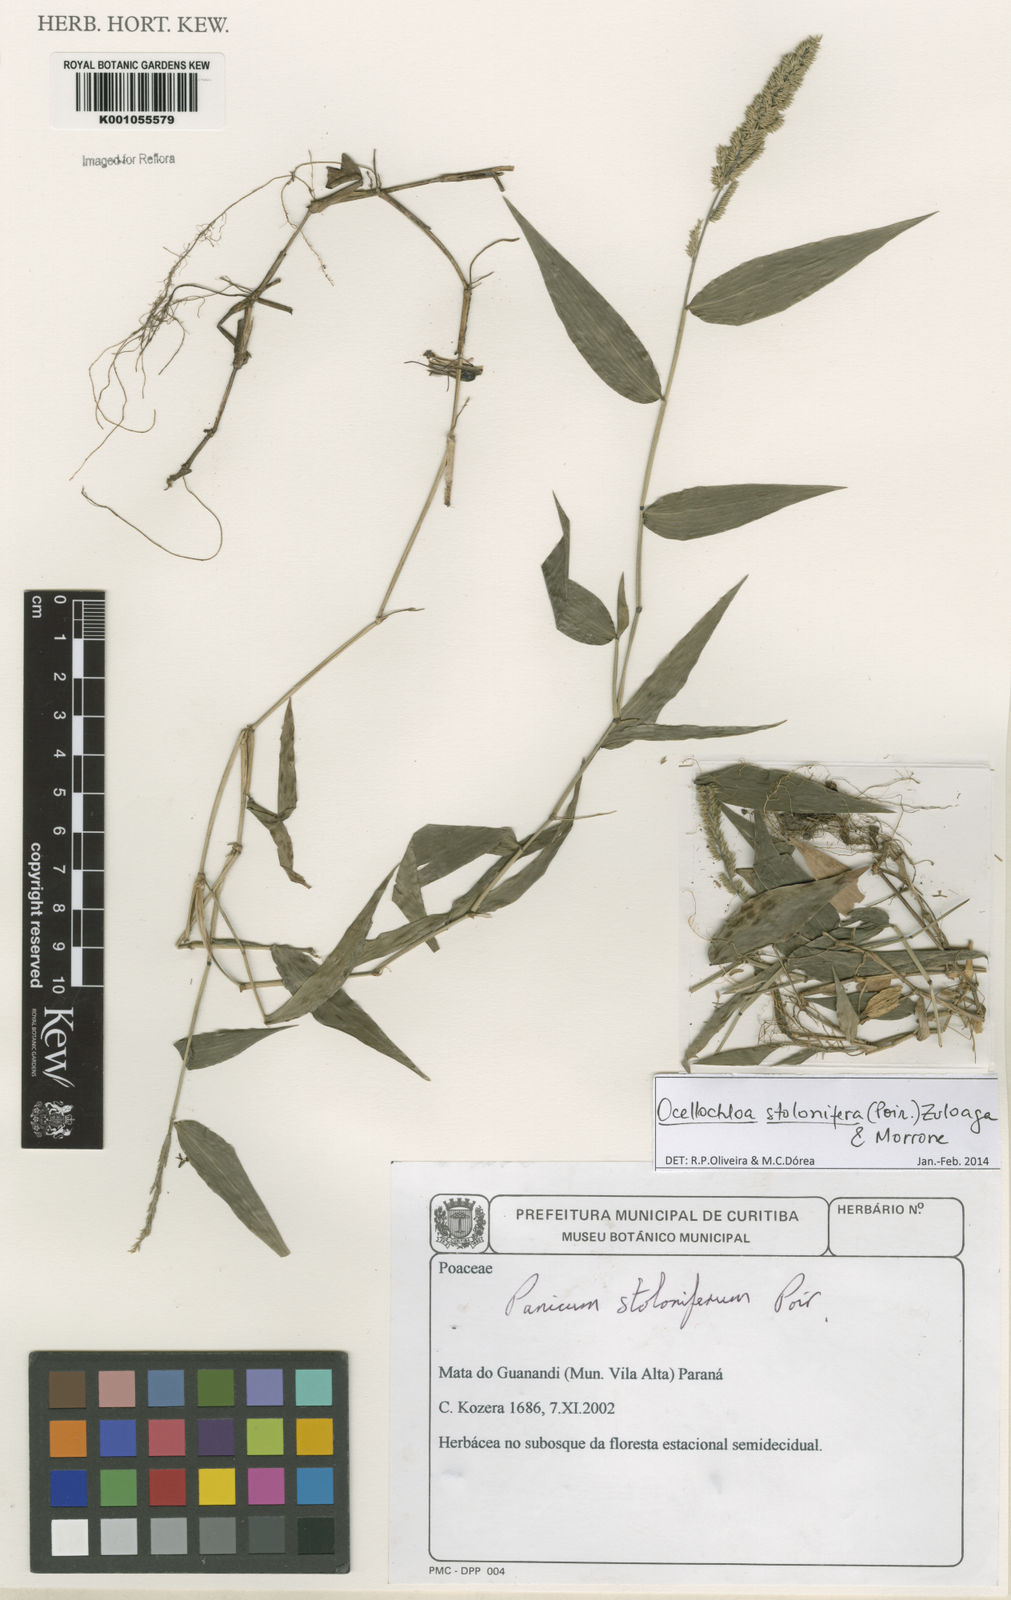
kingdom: Plantae
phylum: Tracheophyta
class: Liliopsida
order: Poales
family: Poaceae
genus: Ocellochloa
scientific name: Ocellochloa stolonifera
